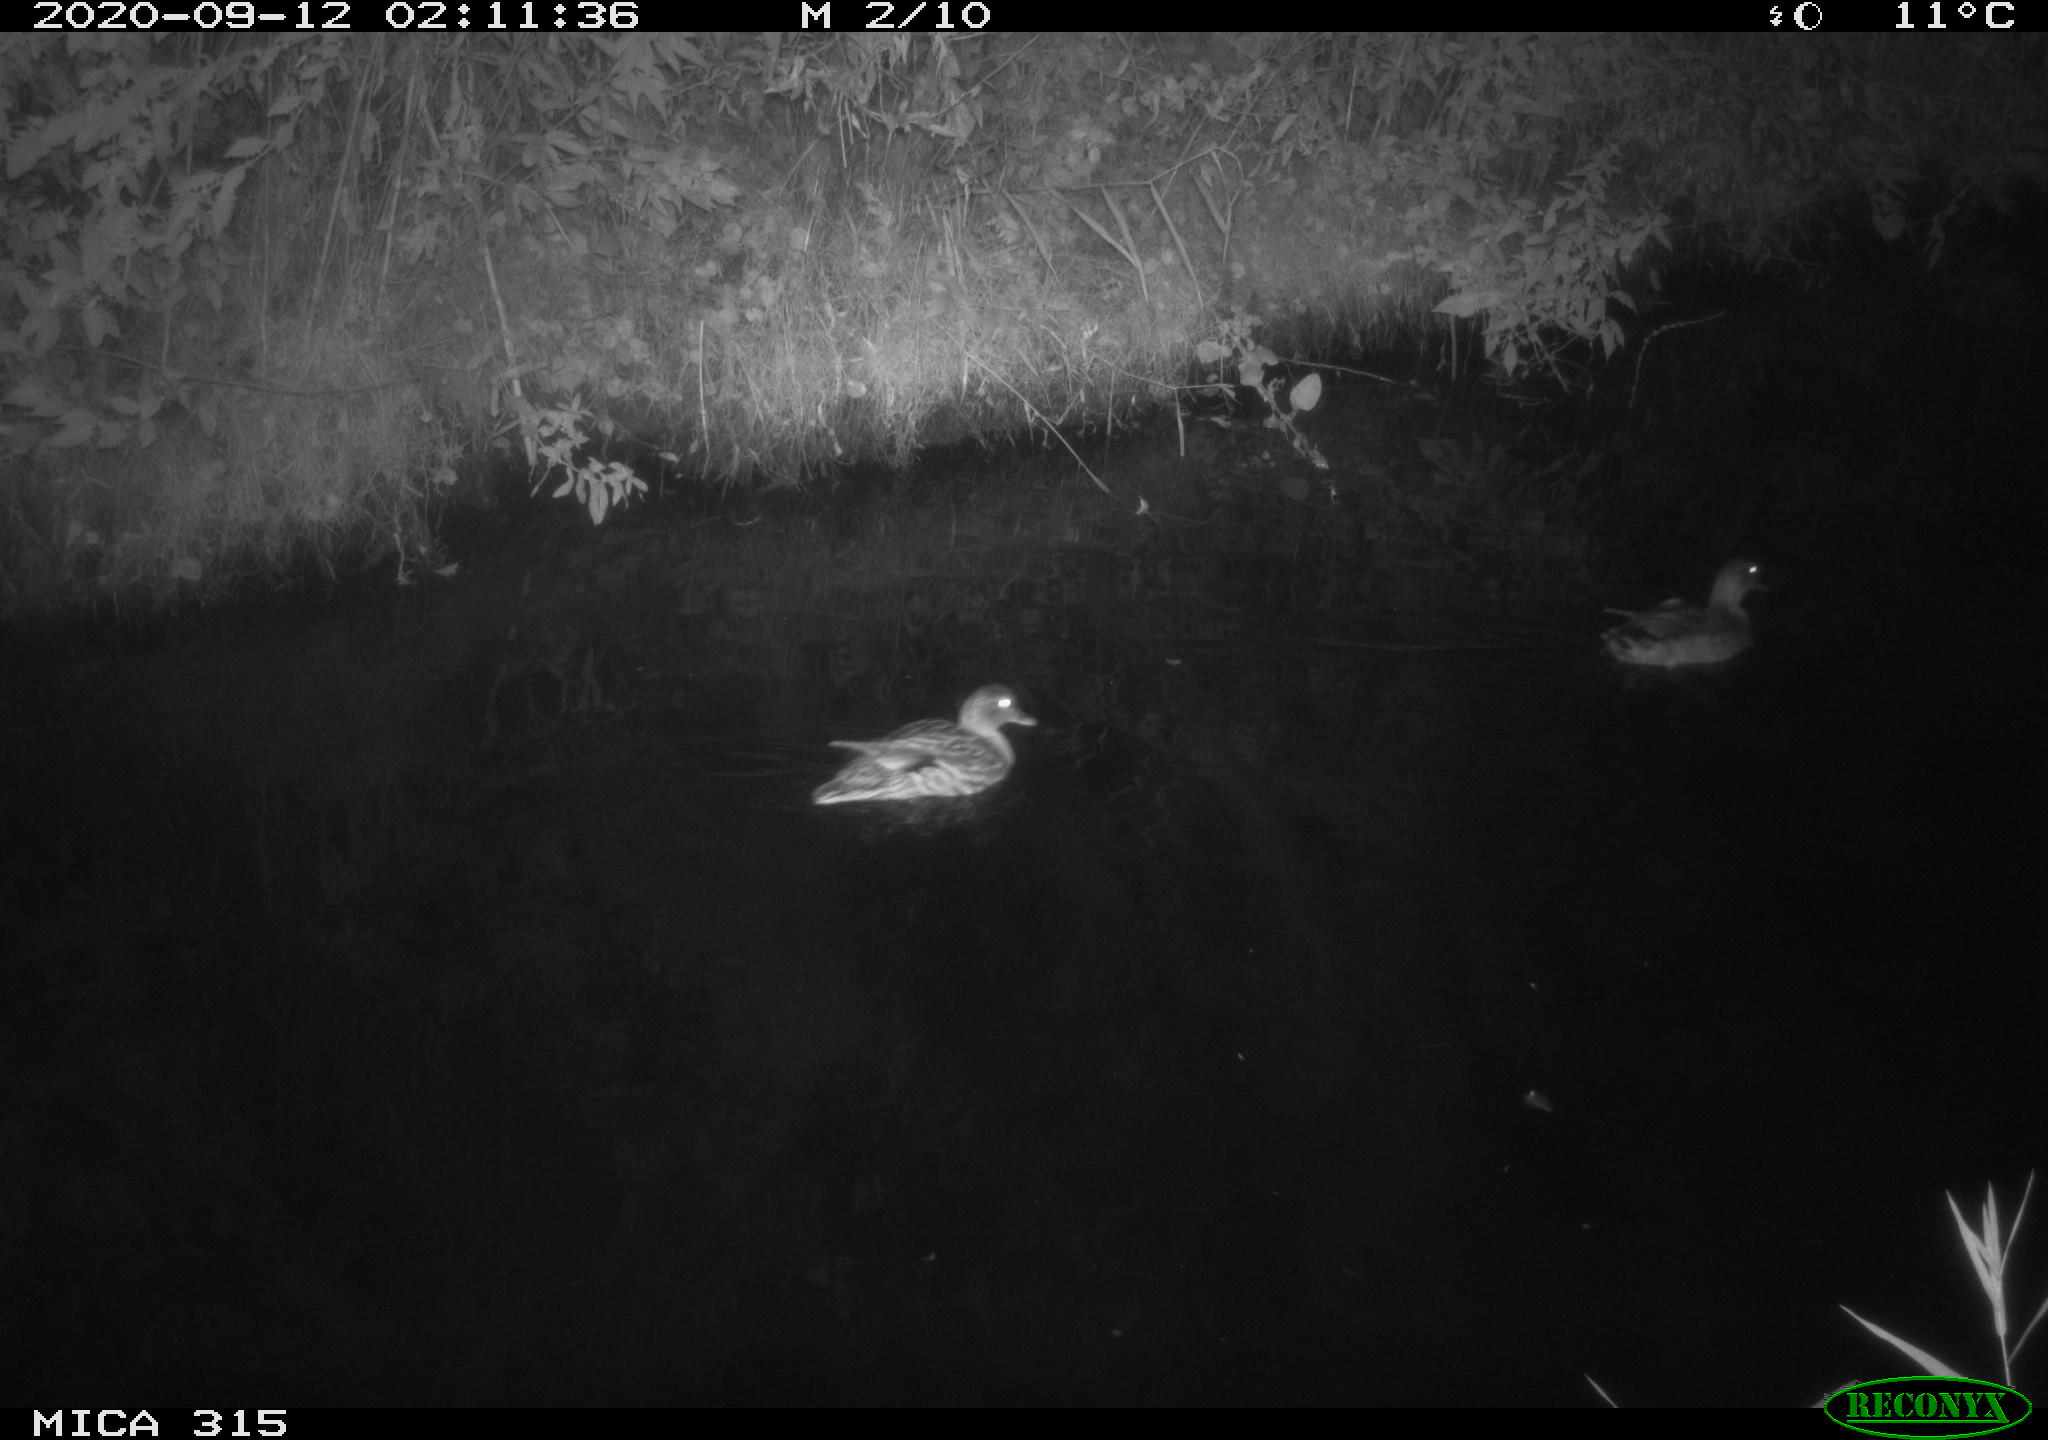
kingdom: Animalia
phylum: Chordata
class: Aves
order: Anseriformes
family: Anatidae
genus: Anas
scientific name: Anas platyrhynchos
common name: Mallard
